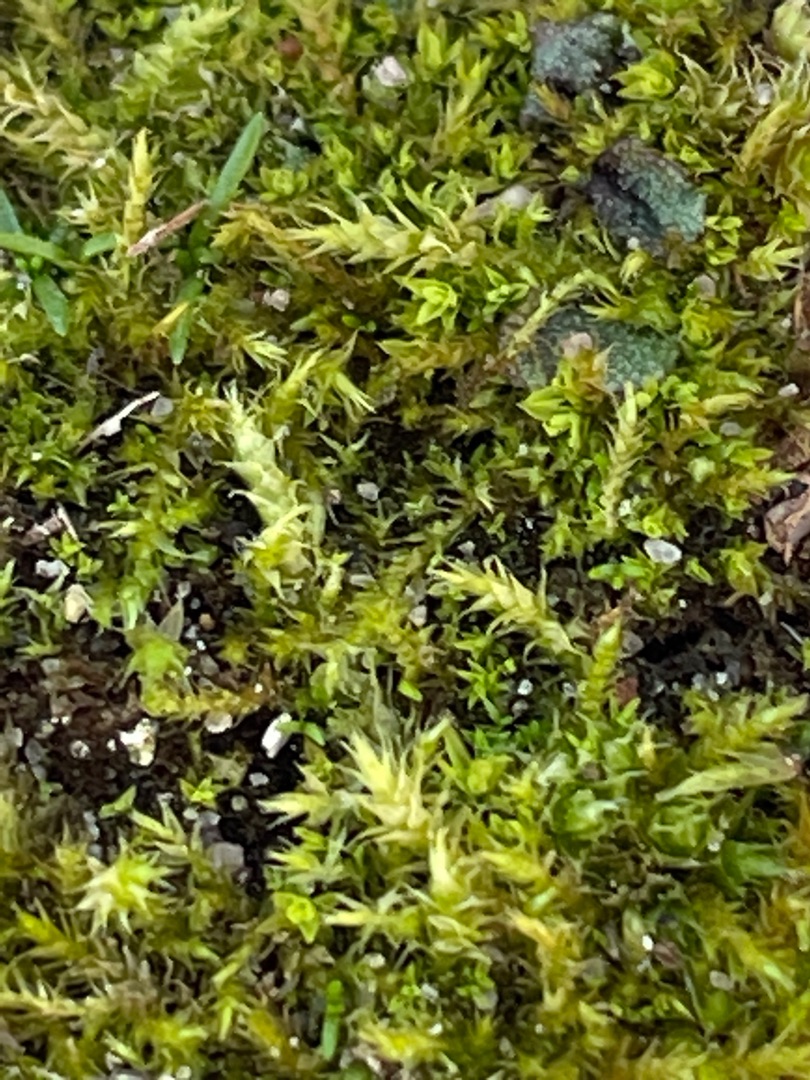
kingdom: Plantae
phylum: Bryophyta
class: Bryopsida
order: Hypnales
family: Brachytheciaceae
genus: Kindbergia
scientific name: Kindbergia praelonga
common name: Forskelligbladet vortetand
